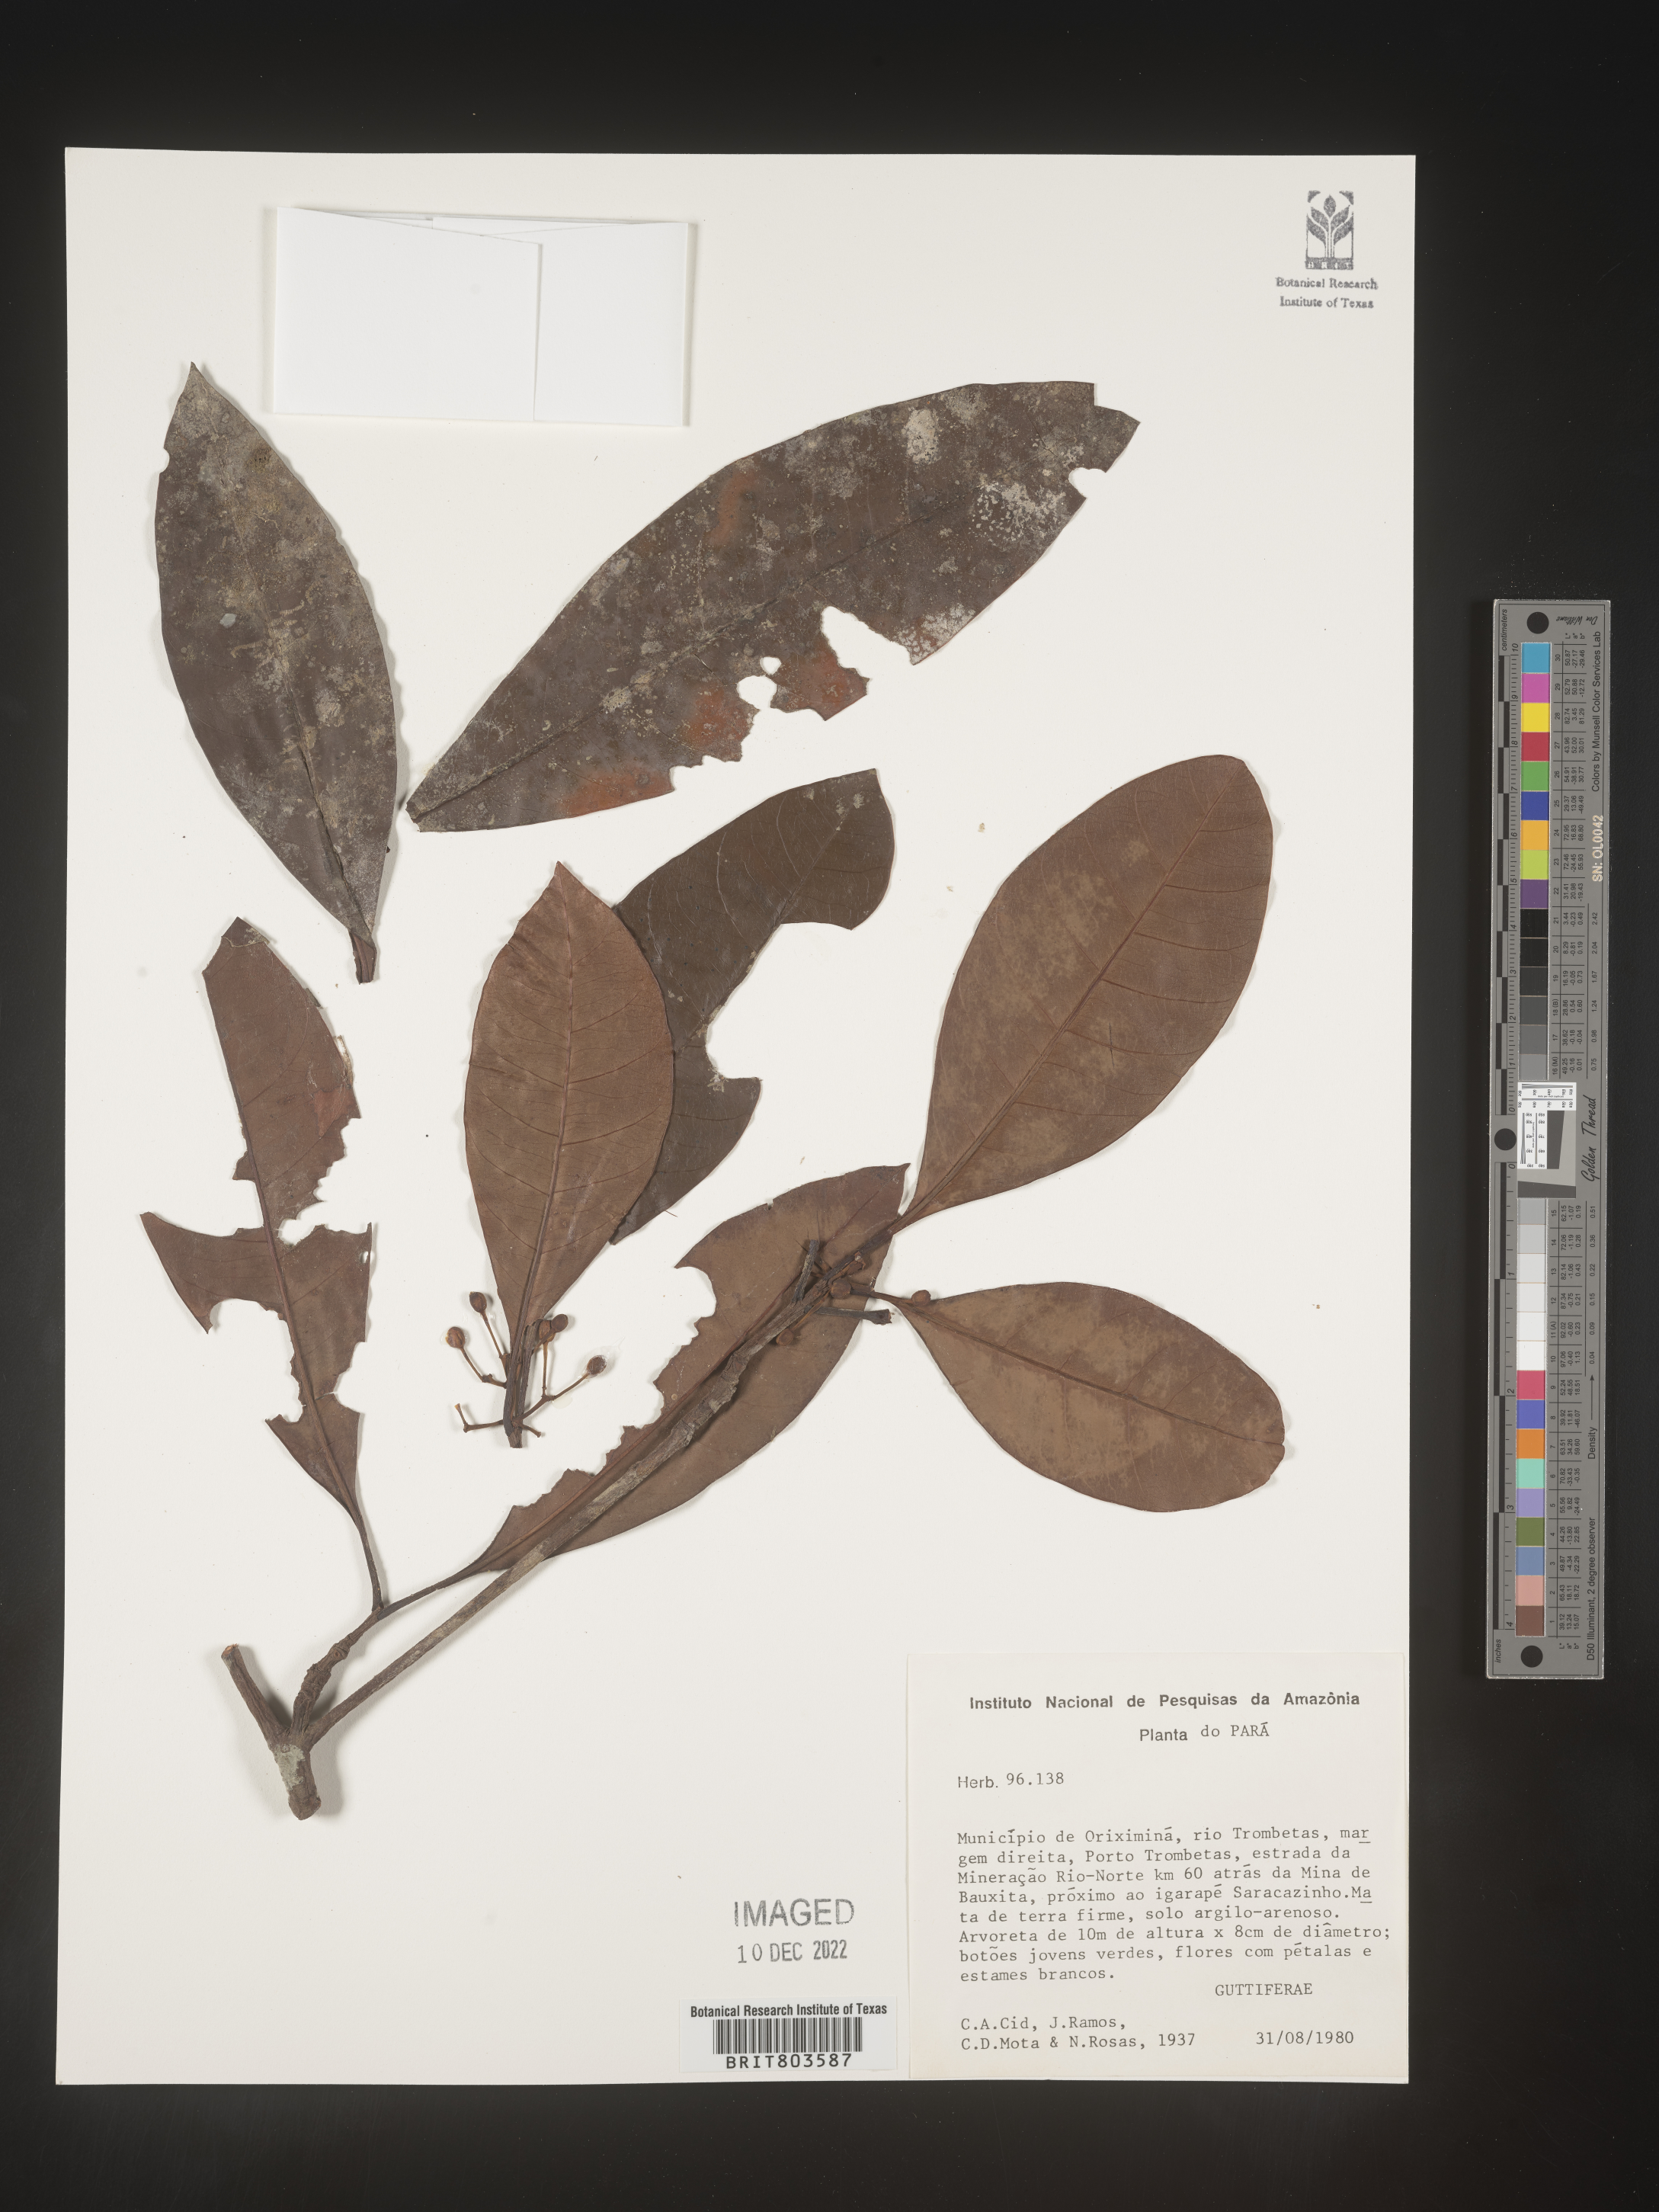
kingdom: Plantae
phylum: Tracheophyta
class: Magnoliopsida
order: Malpighiales
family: Clusiaceae
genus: Tovomita
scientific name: Tovomita
